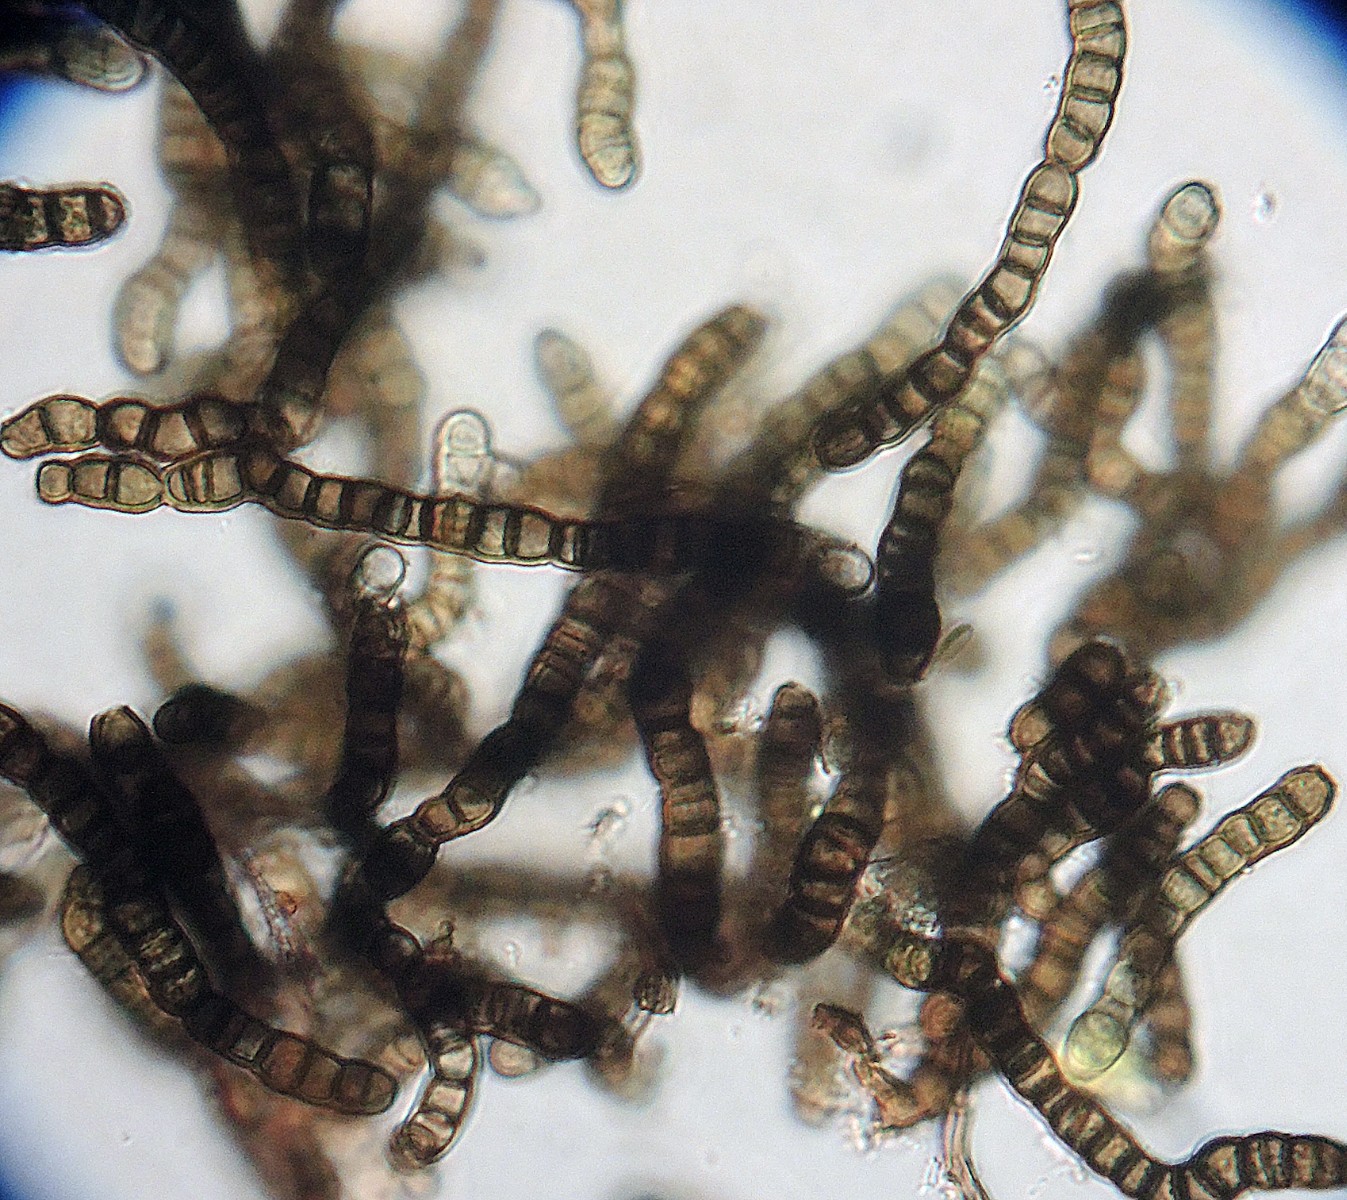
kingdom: Fungi
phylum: Ascomycota
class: Leotiomycetes
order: Helotiales
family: Mollisiaceae
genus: Trimmatostroma
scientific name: Trimmatostroma salicis
